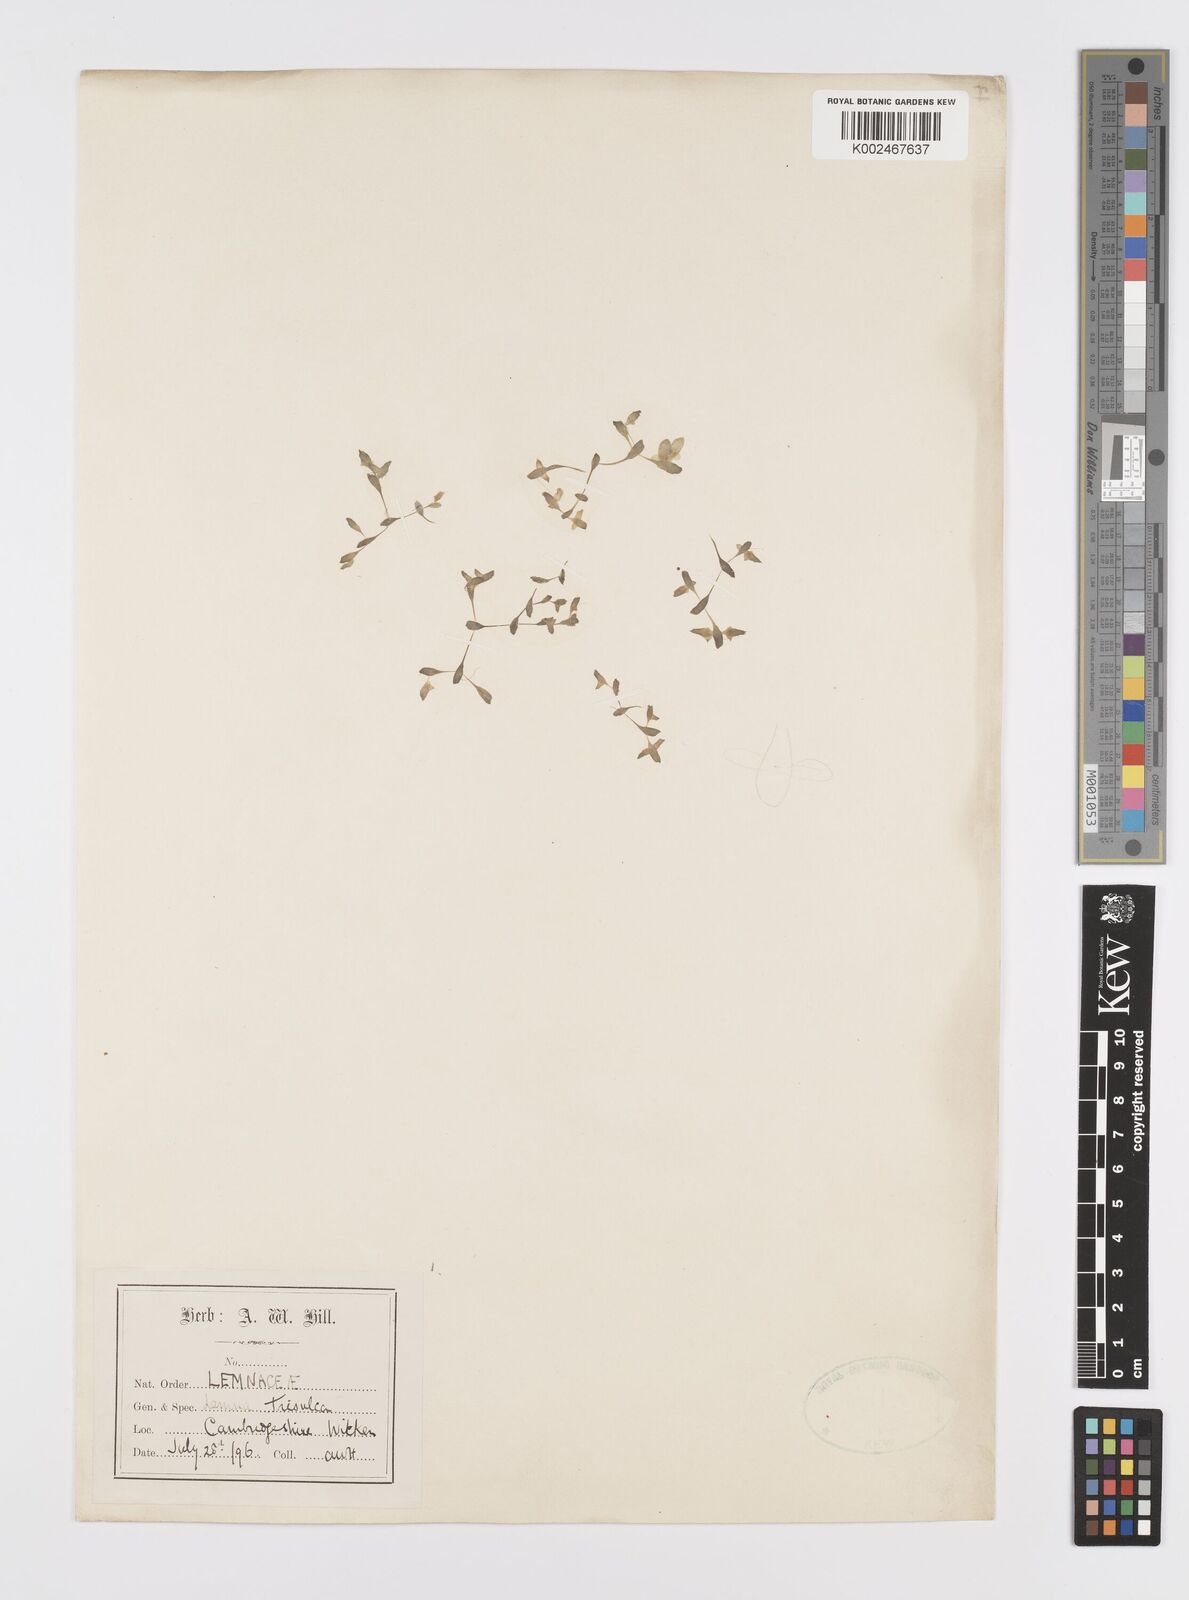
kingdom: Plantae
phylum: Tracheophyta
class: Liliopsida
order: Alismatales
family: Araceae
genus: Lemna
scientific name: Lemna trisulca
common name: Ivy-leaved duckweed
